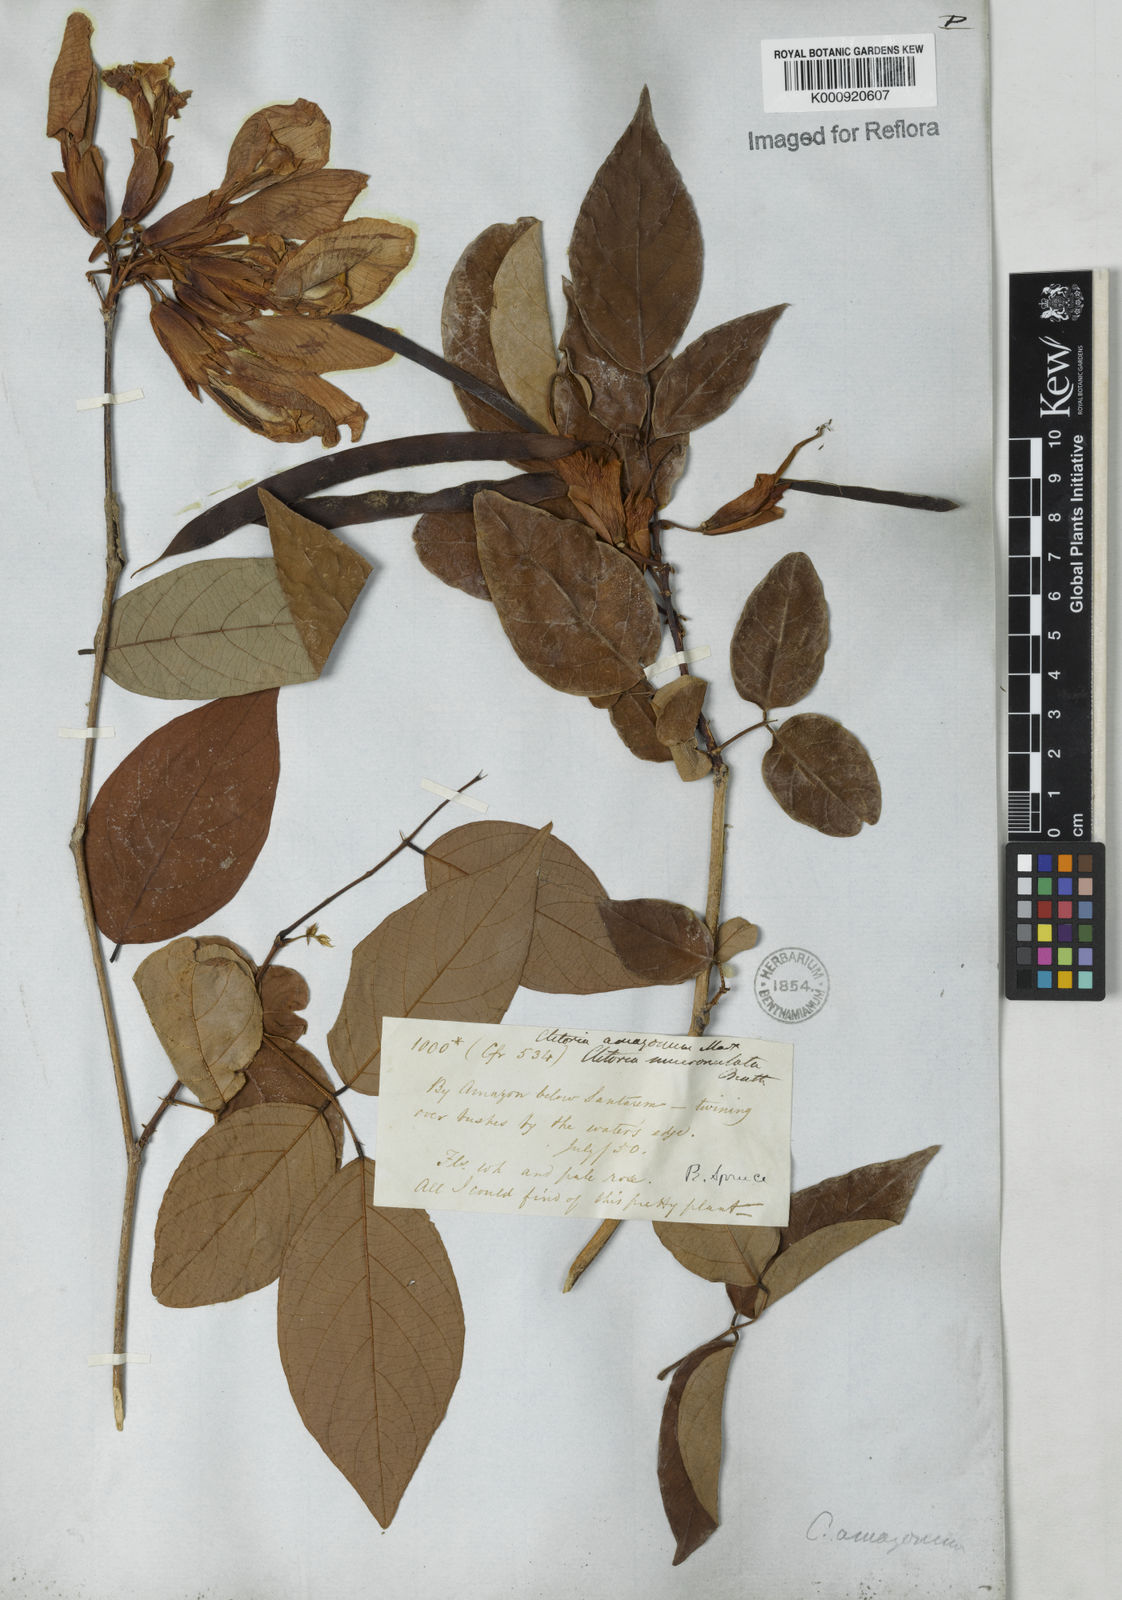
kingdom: Plantae
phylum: Tracheophyta
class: Magnoliopsida
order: Fabales
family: Fabaceae
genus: Clitoria
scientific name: Clitoria amazonum
